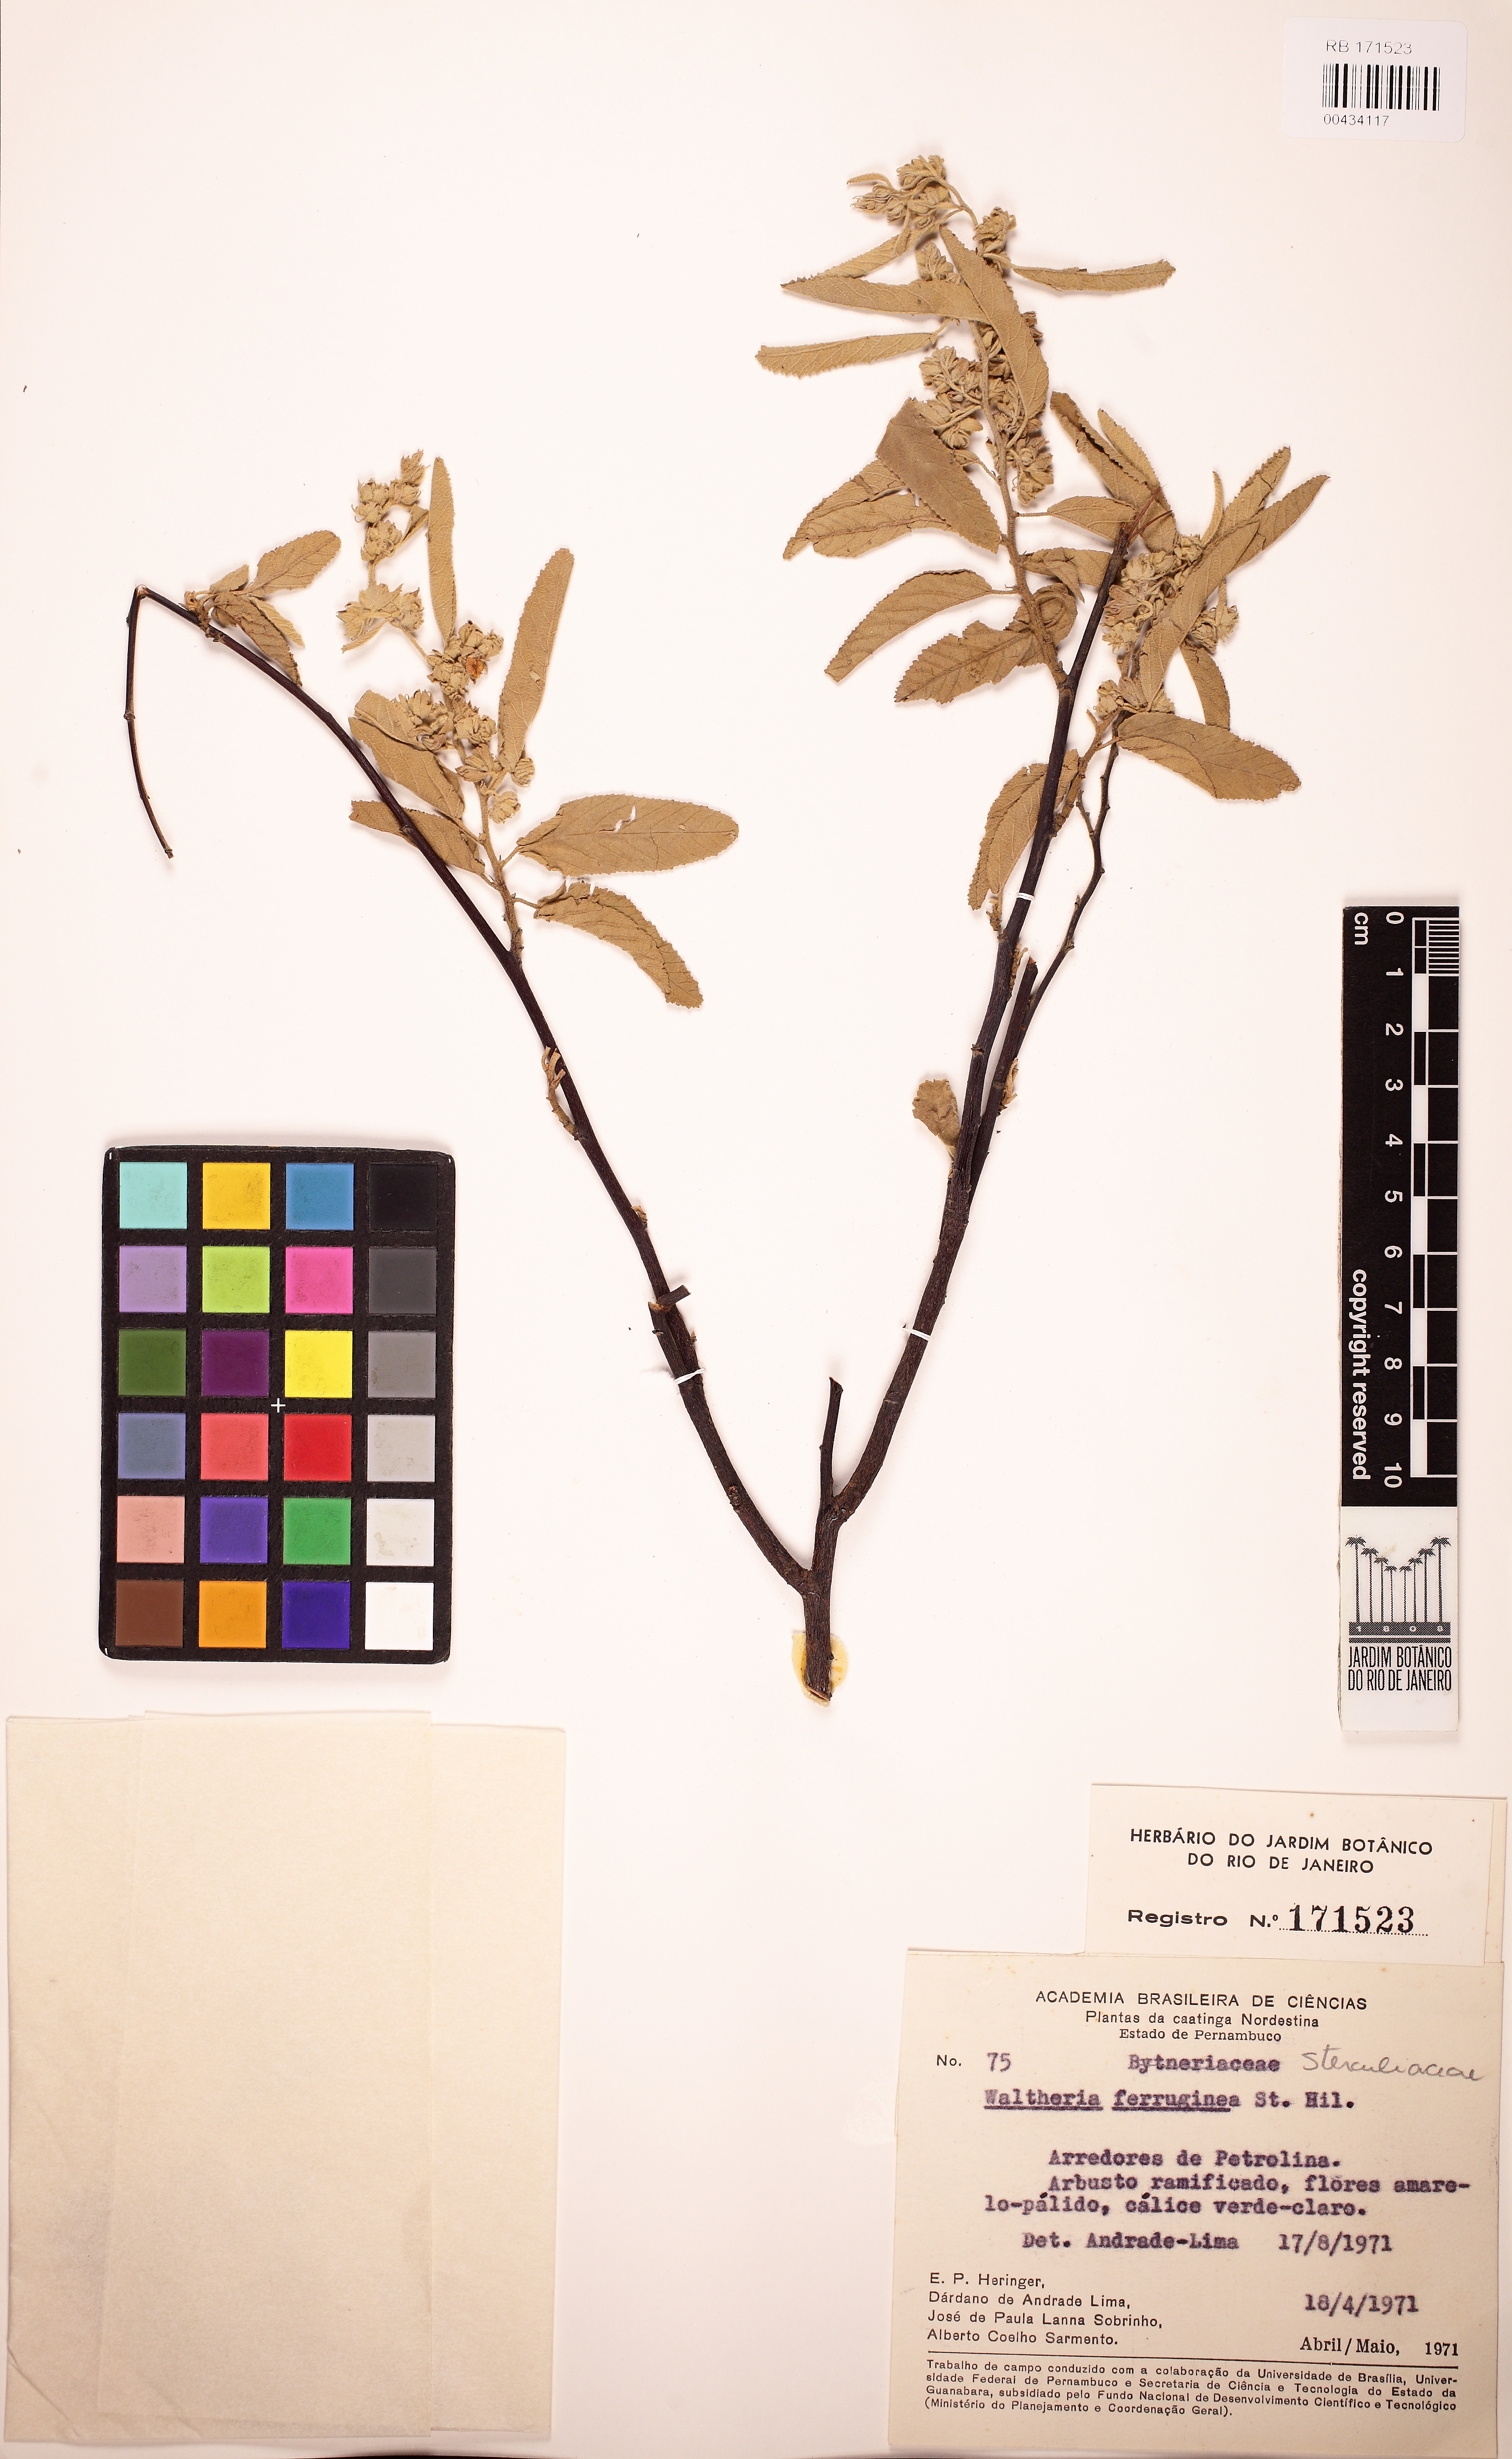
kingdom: Plantae
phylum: Tracheophyta
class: Magnoliopsida
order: Malvales
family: Malvaceae
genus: Waltheria
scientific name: Waltheria brachypetala
